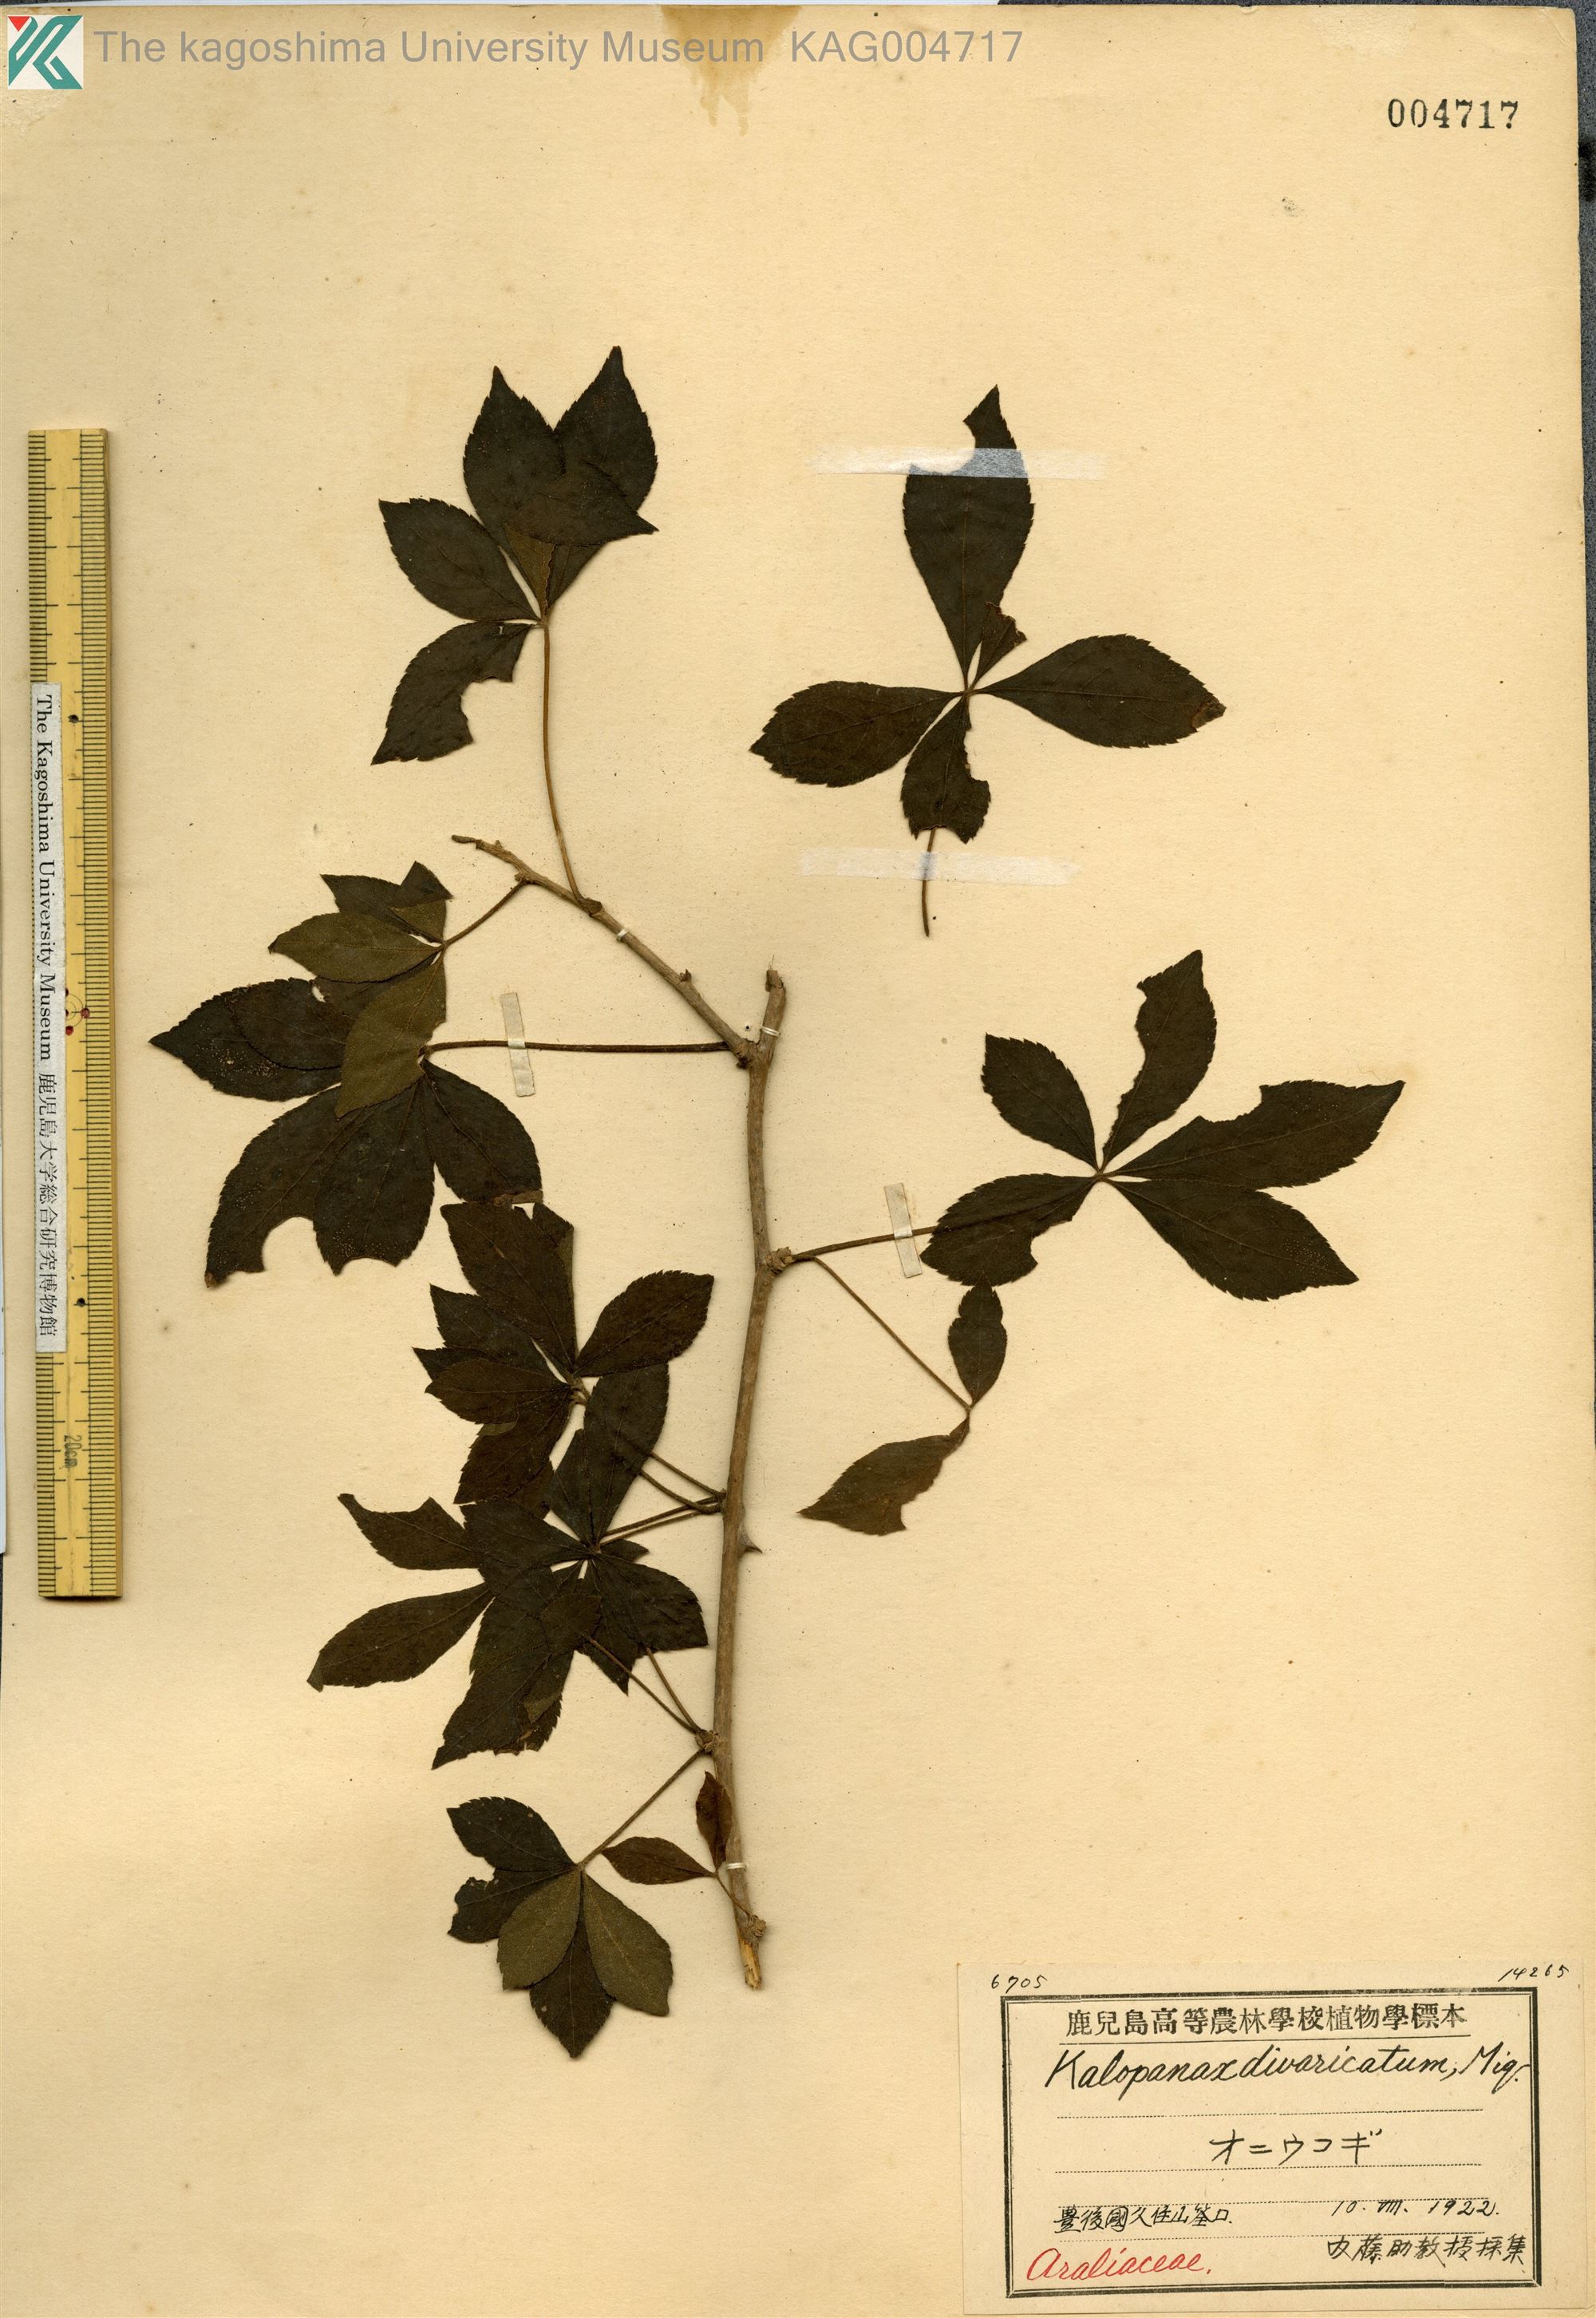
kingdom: Plantae
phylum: Tracheophyta
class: Magnoliopsida
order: Apiales
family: Araliaceae
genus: Eleutherococcus
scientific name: Eleutherococcus divaricatus
